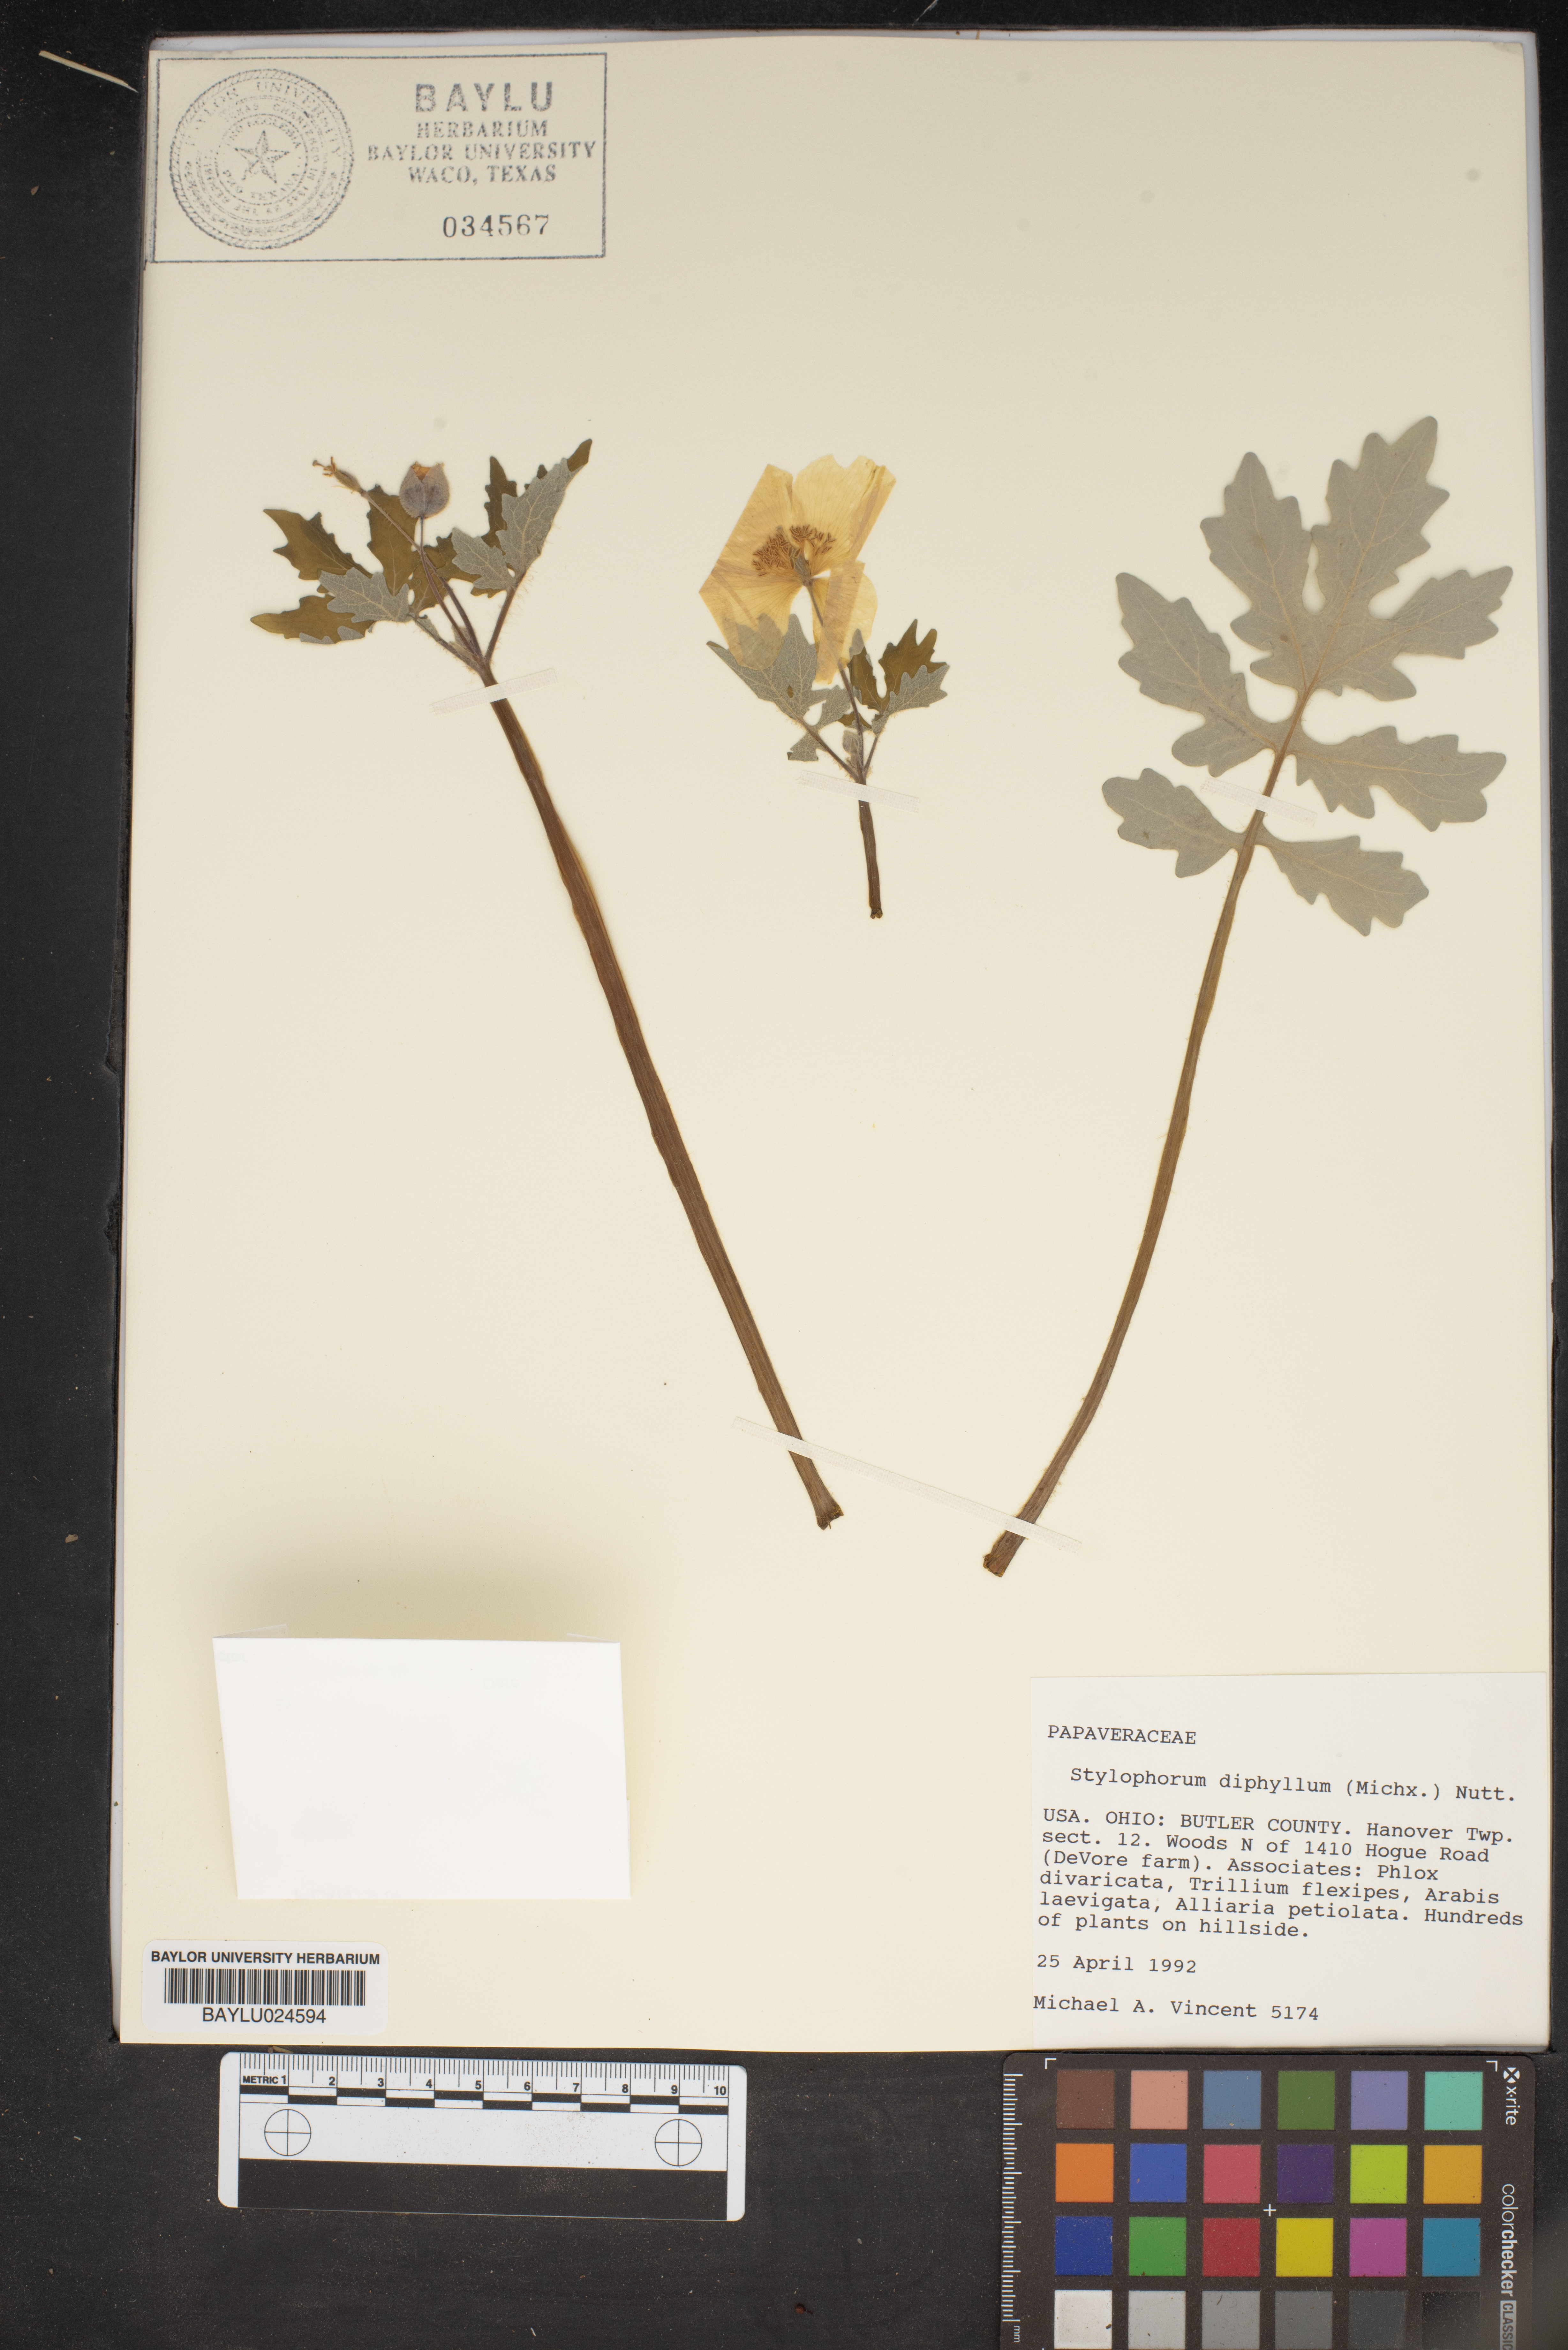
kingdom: Plantae
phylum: Tracheophyta
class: Magnoliopsida
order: Ranunculales
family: Papaveraceae
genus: Stylophorum
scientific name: Stylophorum diphyllum
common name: Celandine poppy
